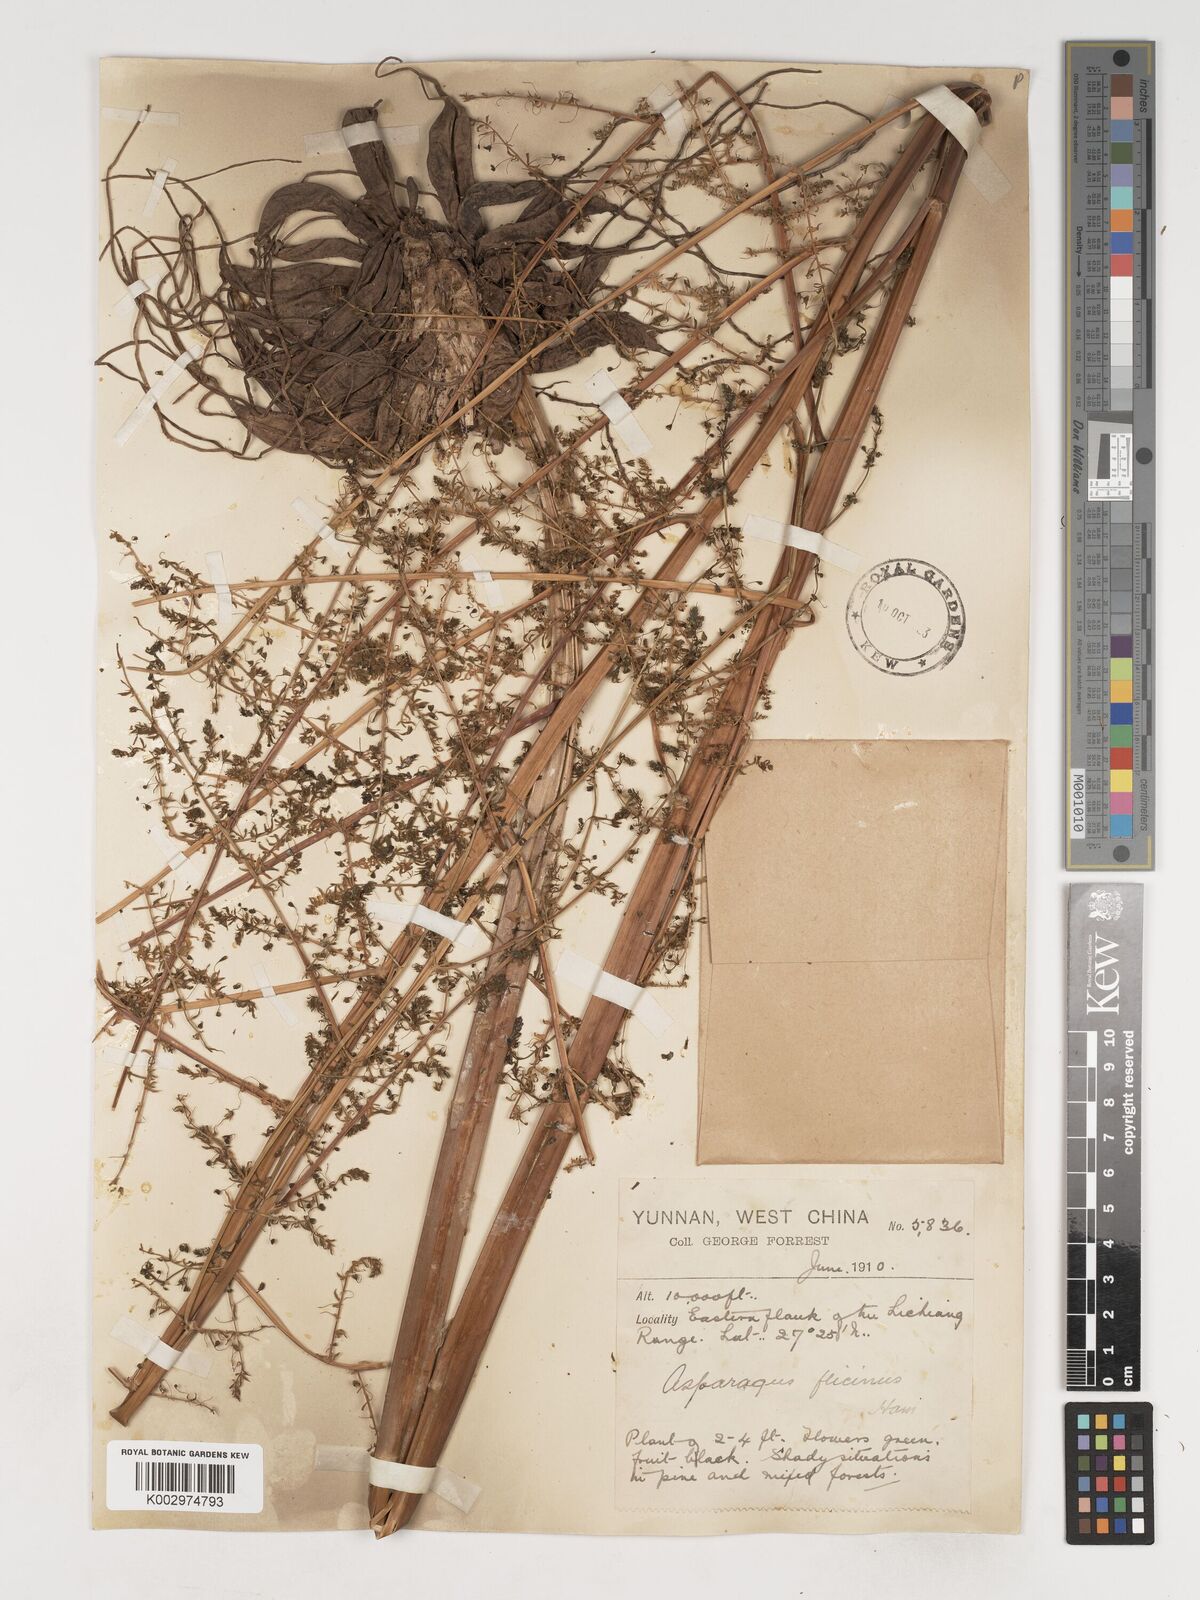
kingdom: Plantae
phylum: Tracheophyta
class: Liliopsida
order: Asparagales
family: Asparagaceae
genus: Asparagus
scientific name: Asparagus filicinus
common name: Fern asparagus
